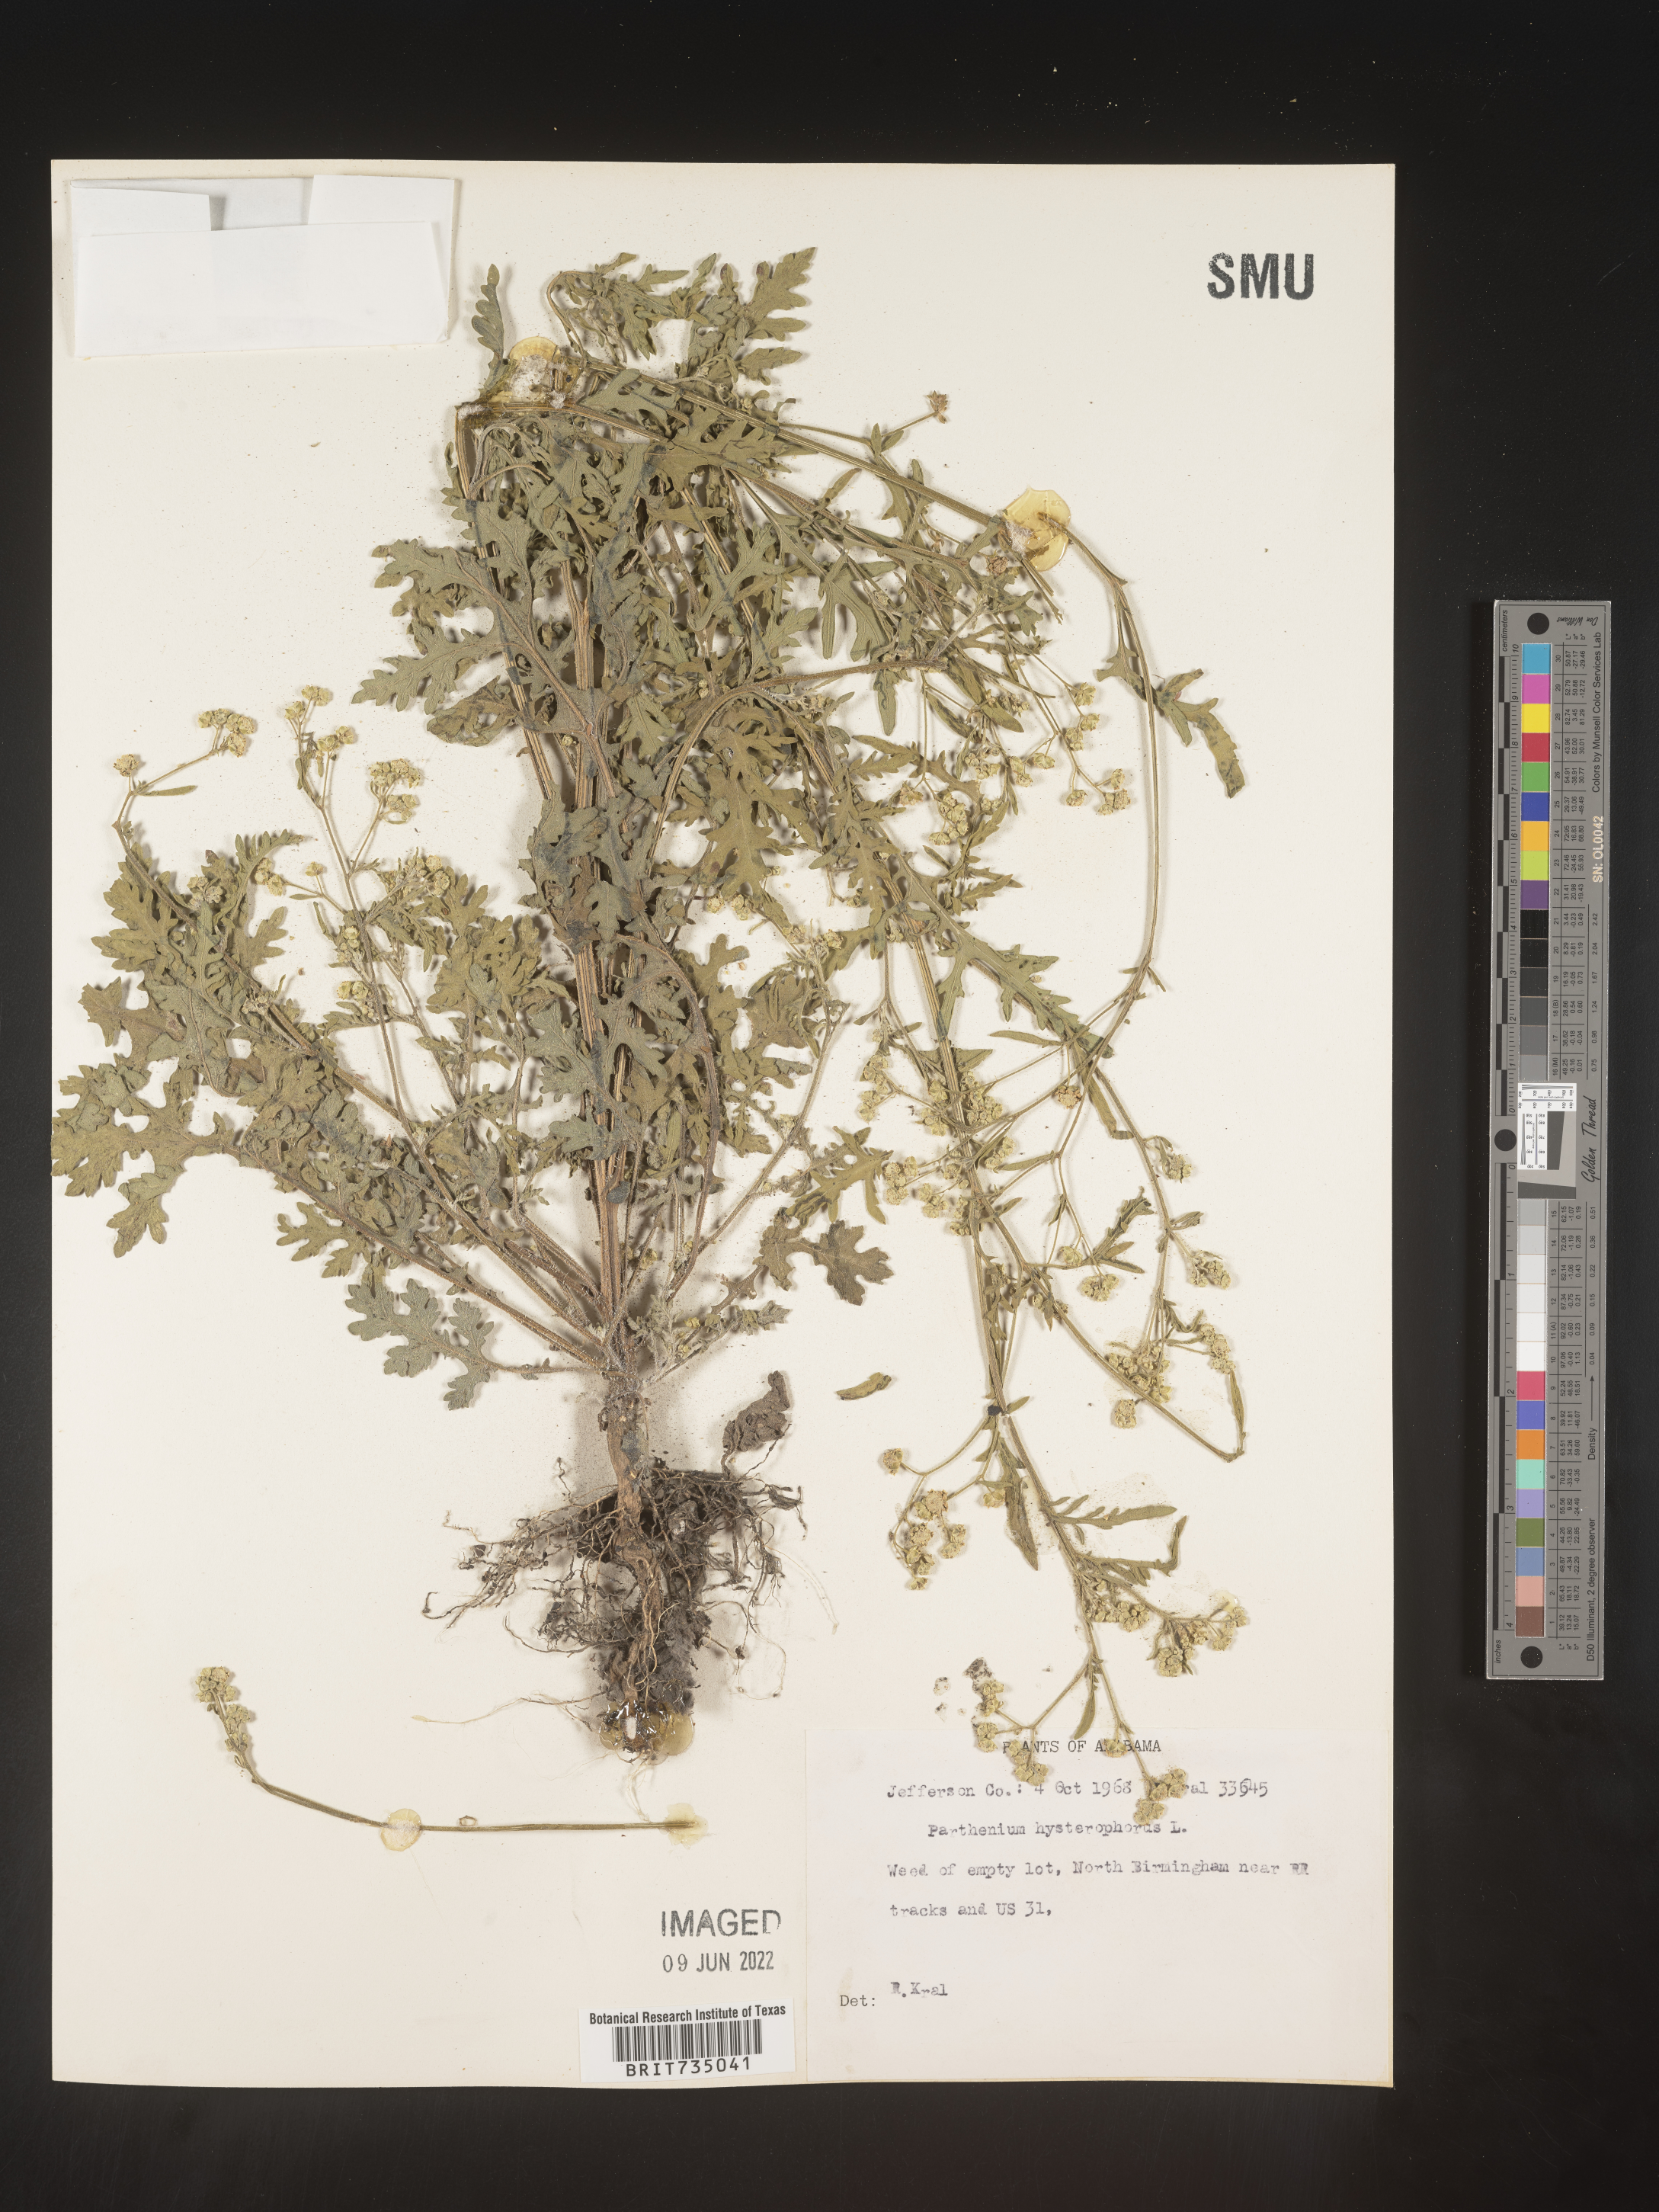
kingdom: Plantae
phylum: Tracheophyta
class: Magnoliopsida
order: Asterales
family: Asteraceae
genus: Parthenium
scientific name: Parthenium hysterophorus
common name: Santa maria feverfew
